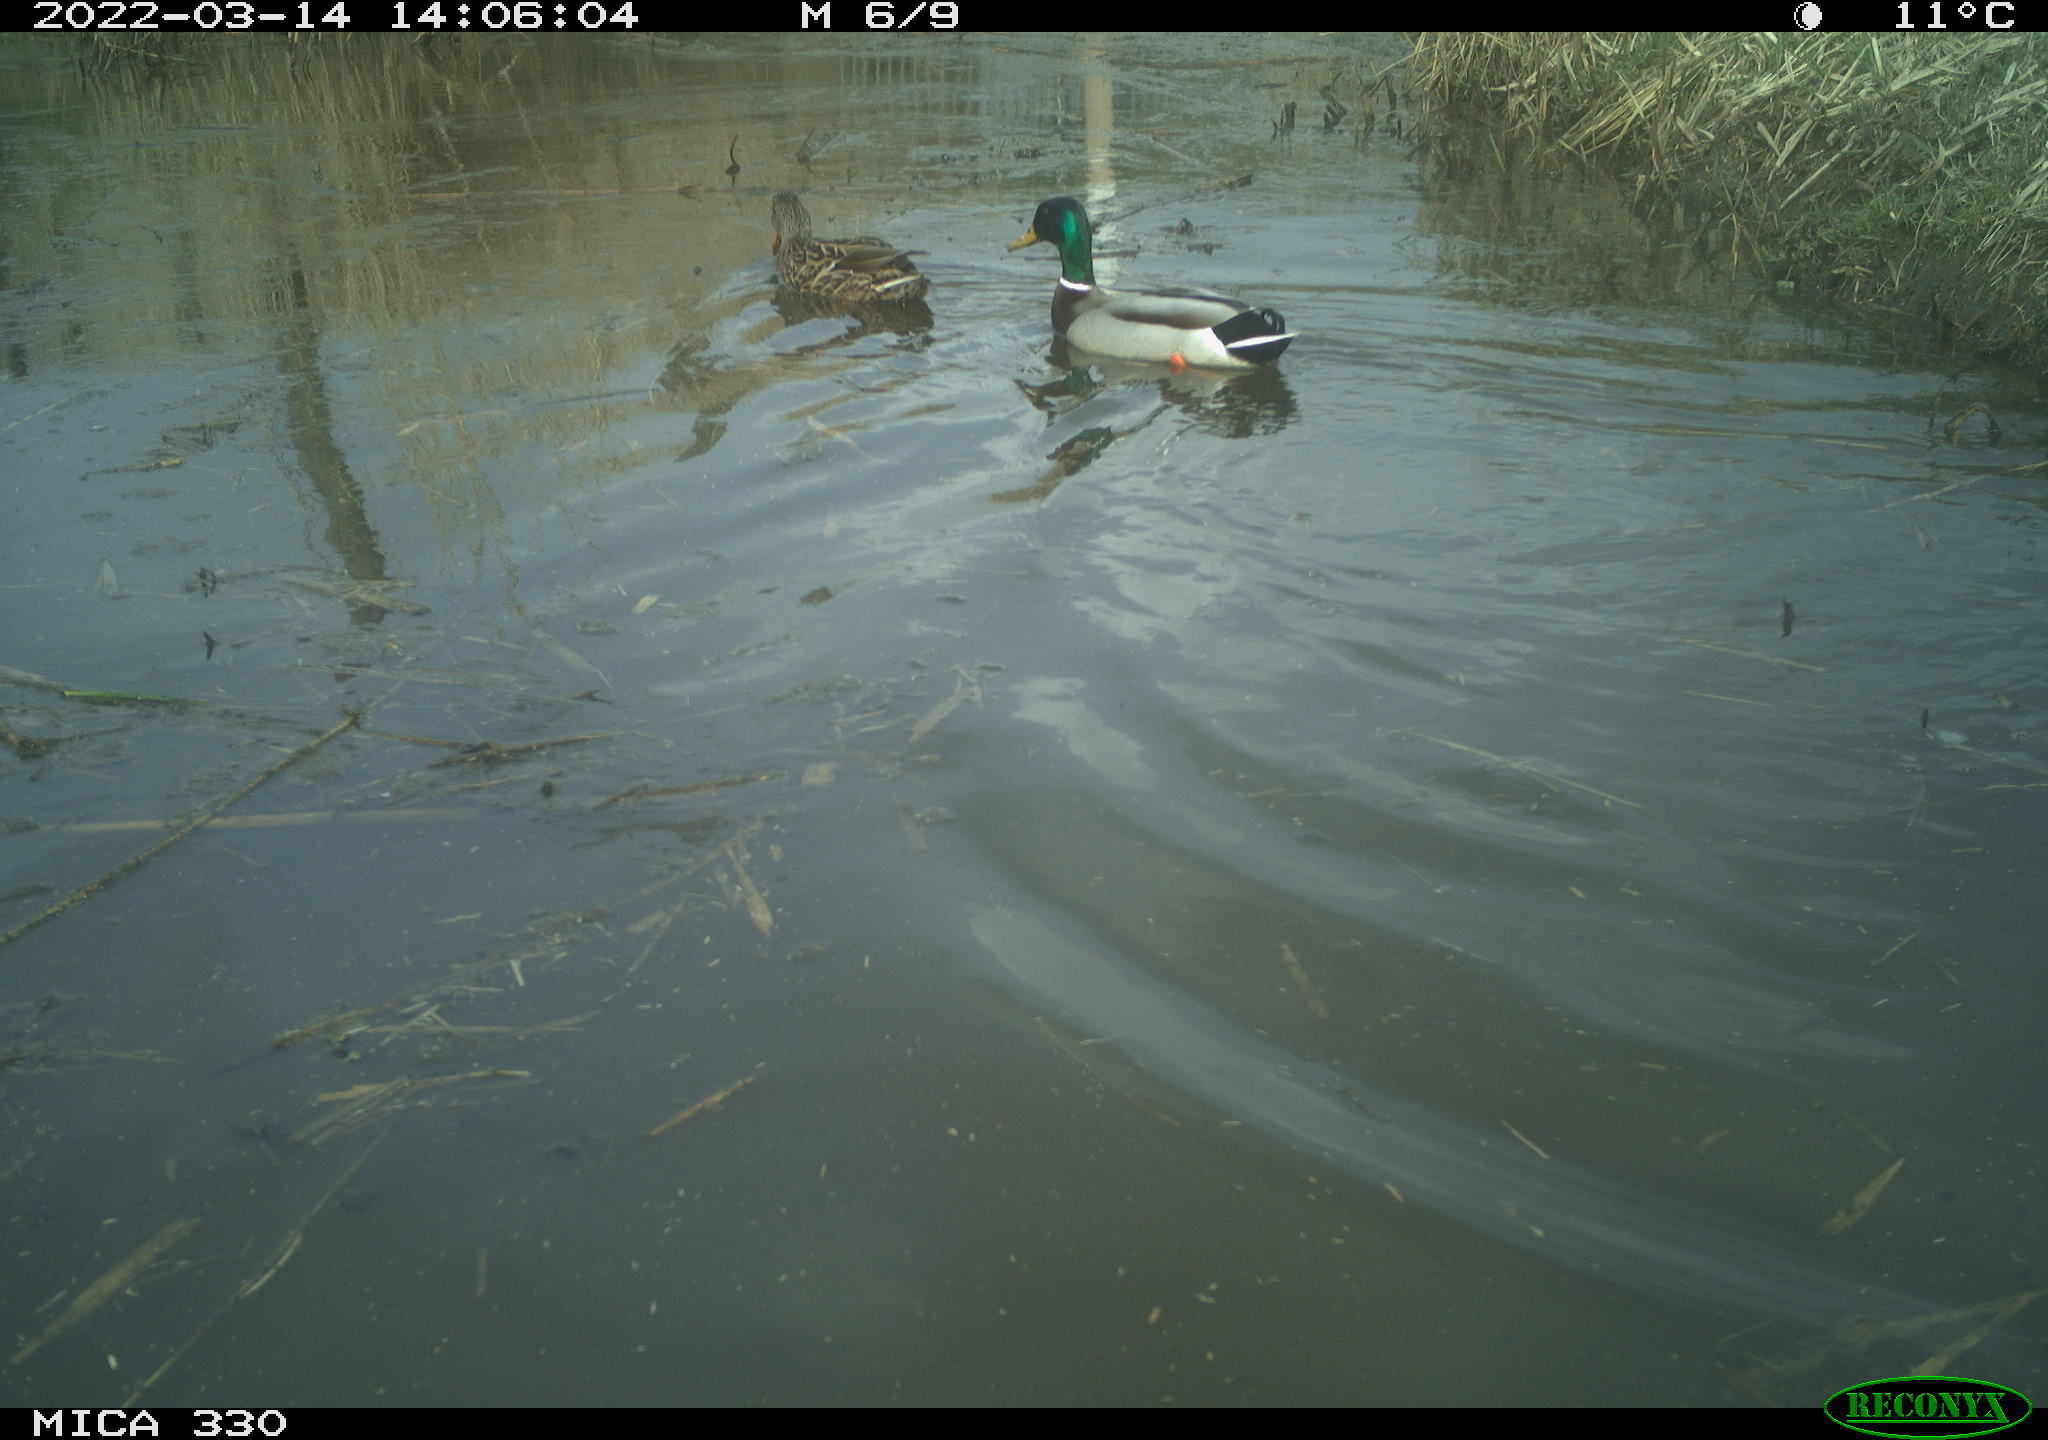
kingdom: Animalia
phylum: Chordata
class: Aves
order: Anseriformes
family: Anatidae
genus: Anas
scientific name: Anas platyrhynchos
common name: Mallard
